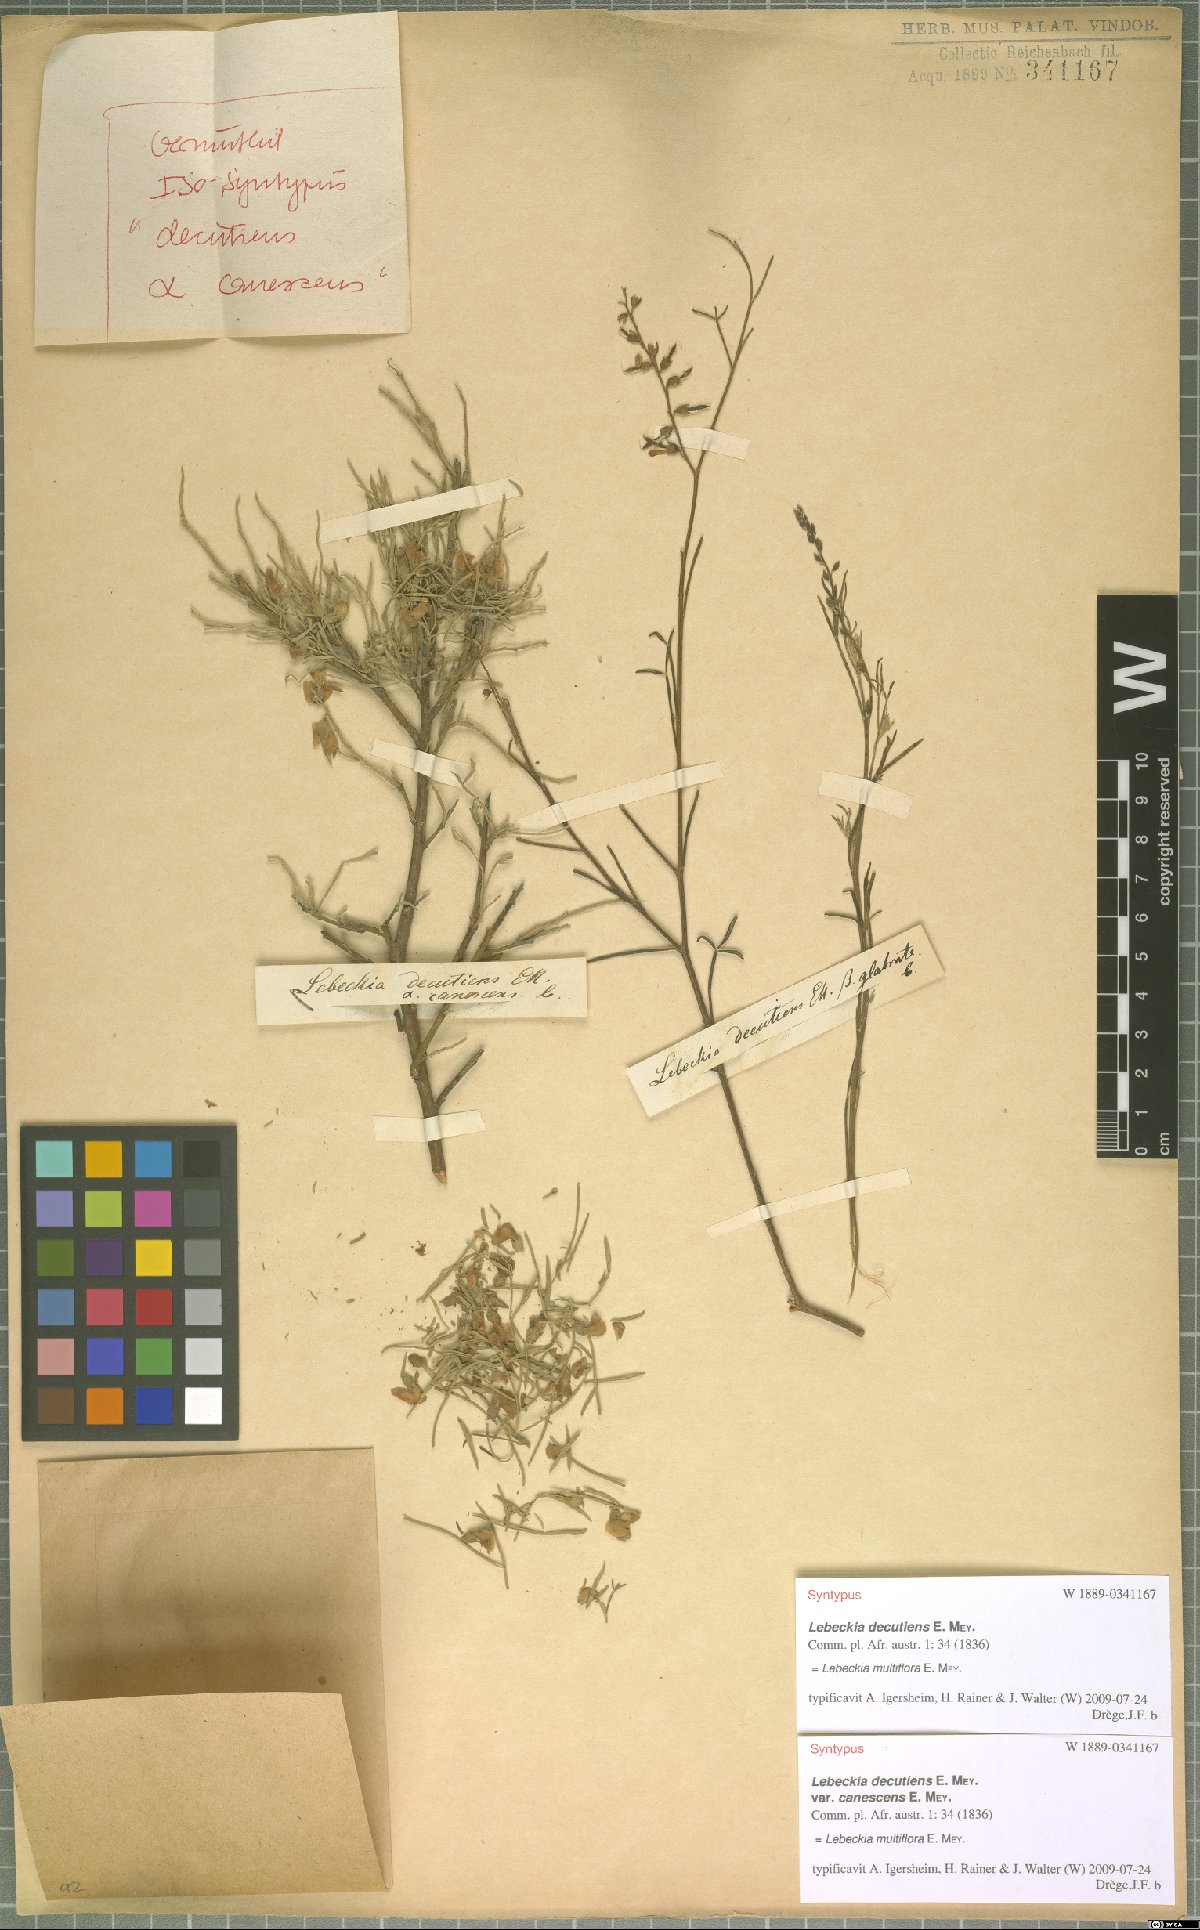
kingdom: Plantae
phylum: Tracheophyta
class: Magnoliopsida
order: Fabales
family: Fabaceae
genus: Calobota
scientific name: Calobota angustifolia
